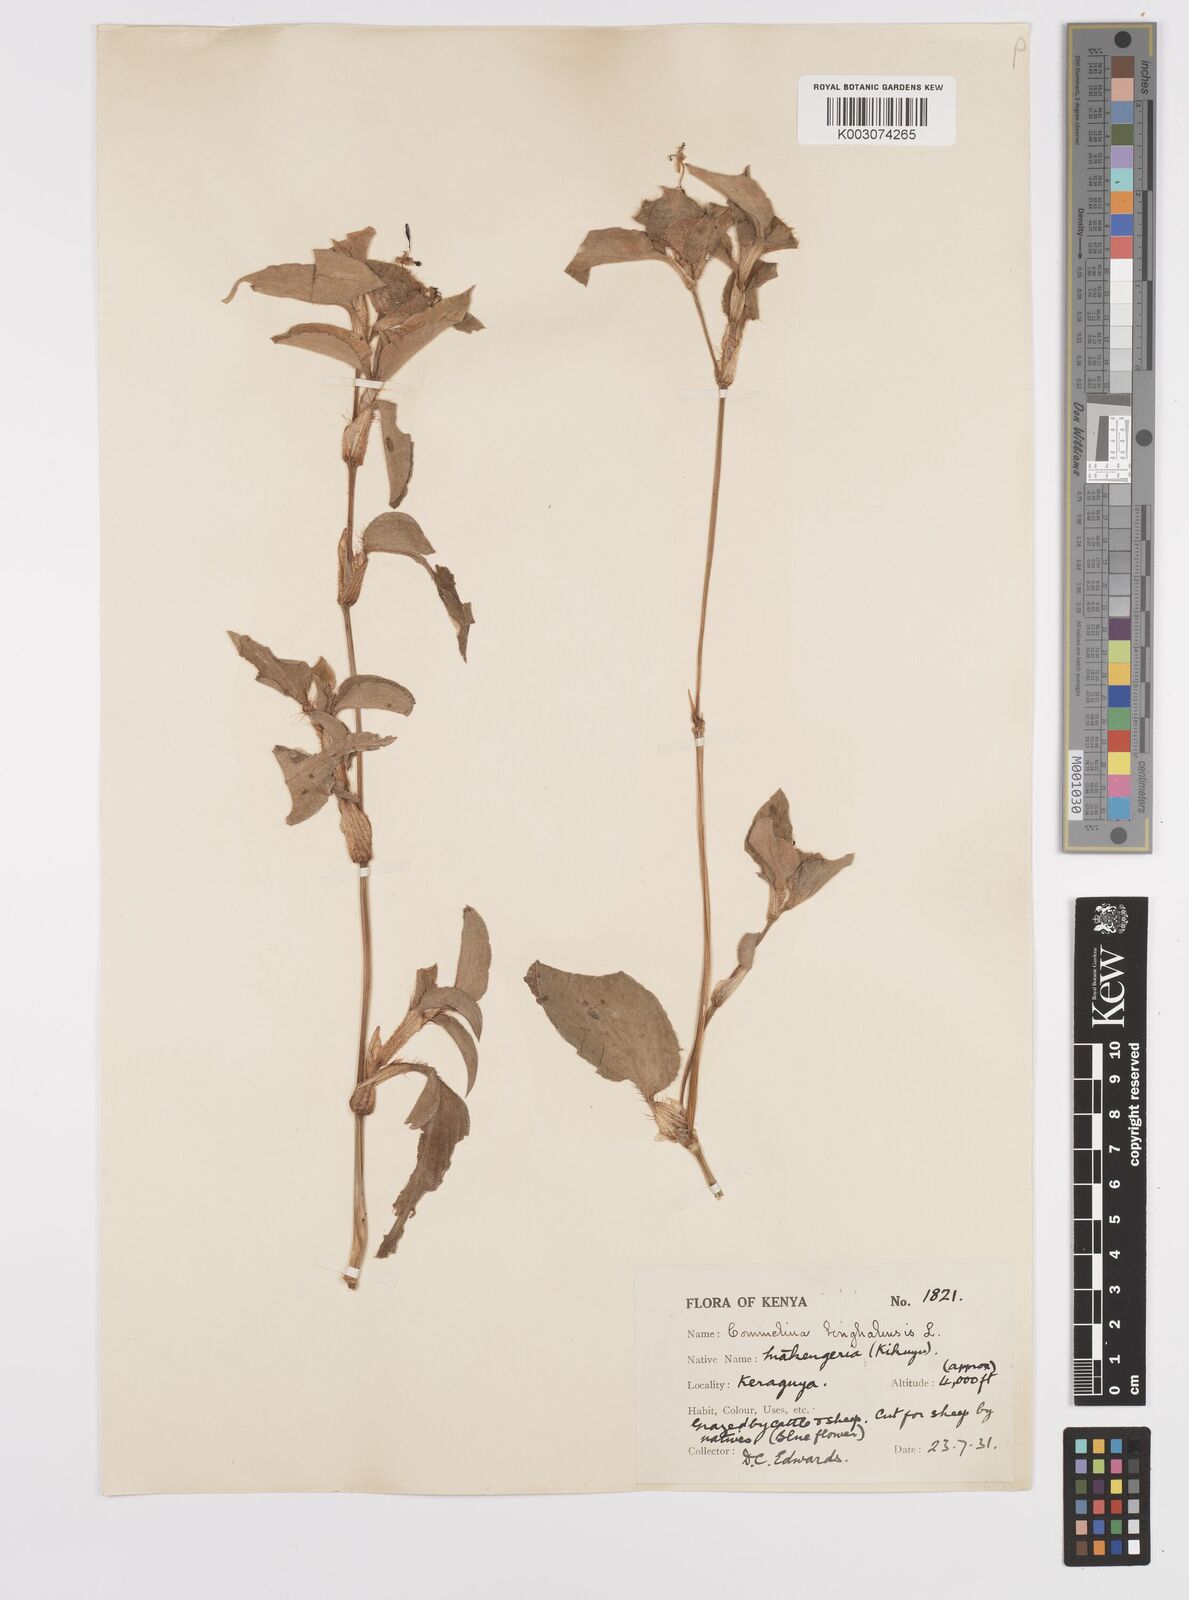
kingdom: Plantae
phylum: Tracheophyta
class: Liliopsida
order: Commelinales
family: Commelinaceae
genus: Commelina
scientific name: Commelina benghalensis
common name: Jio
